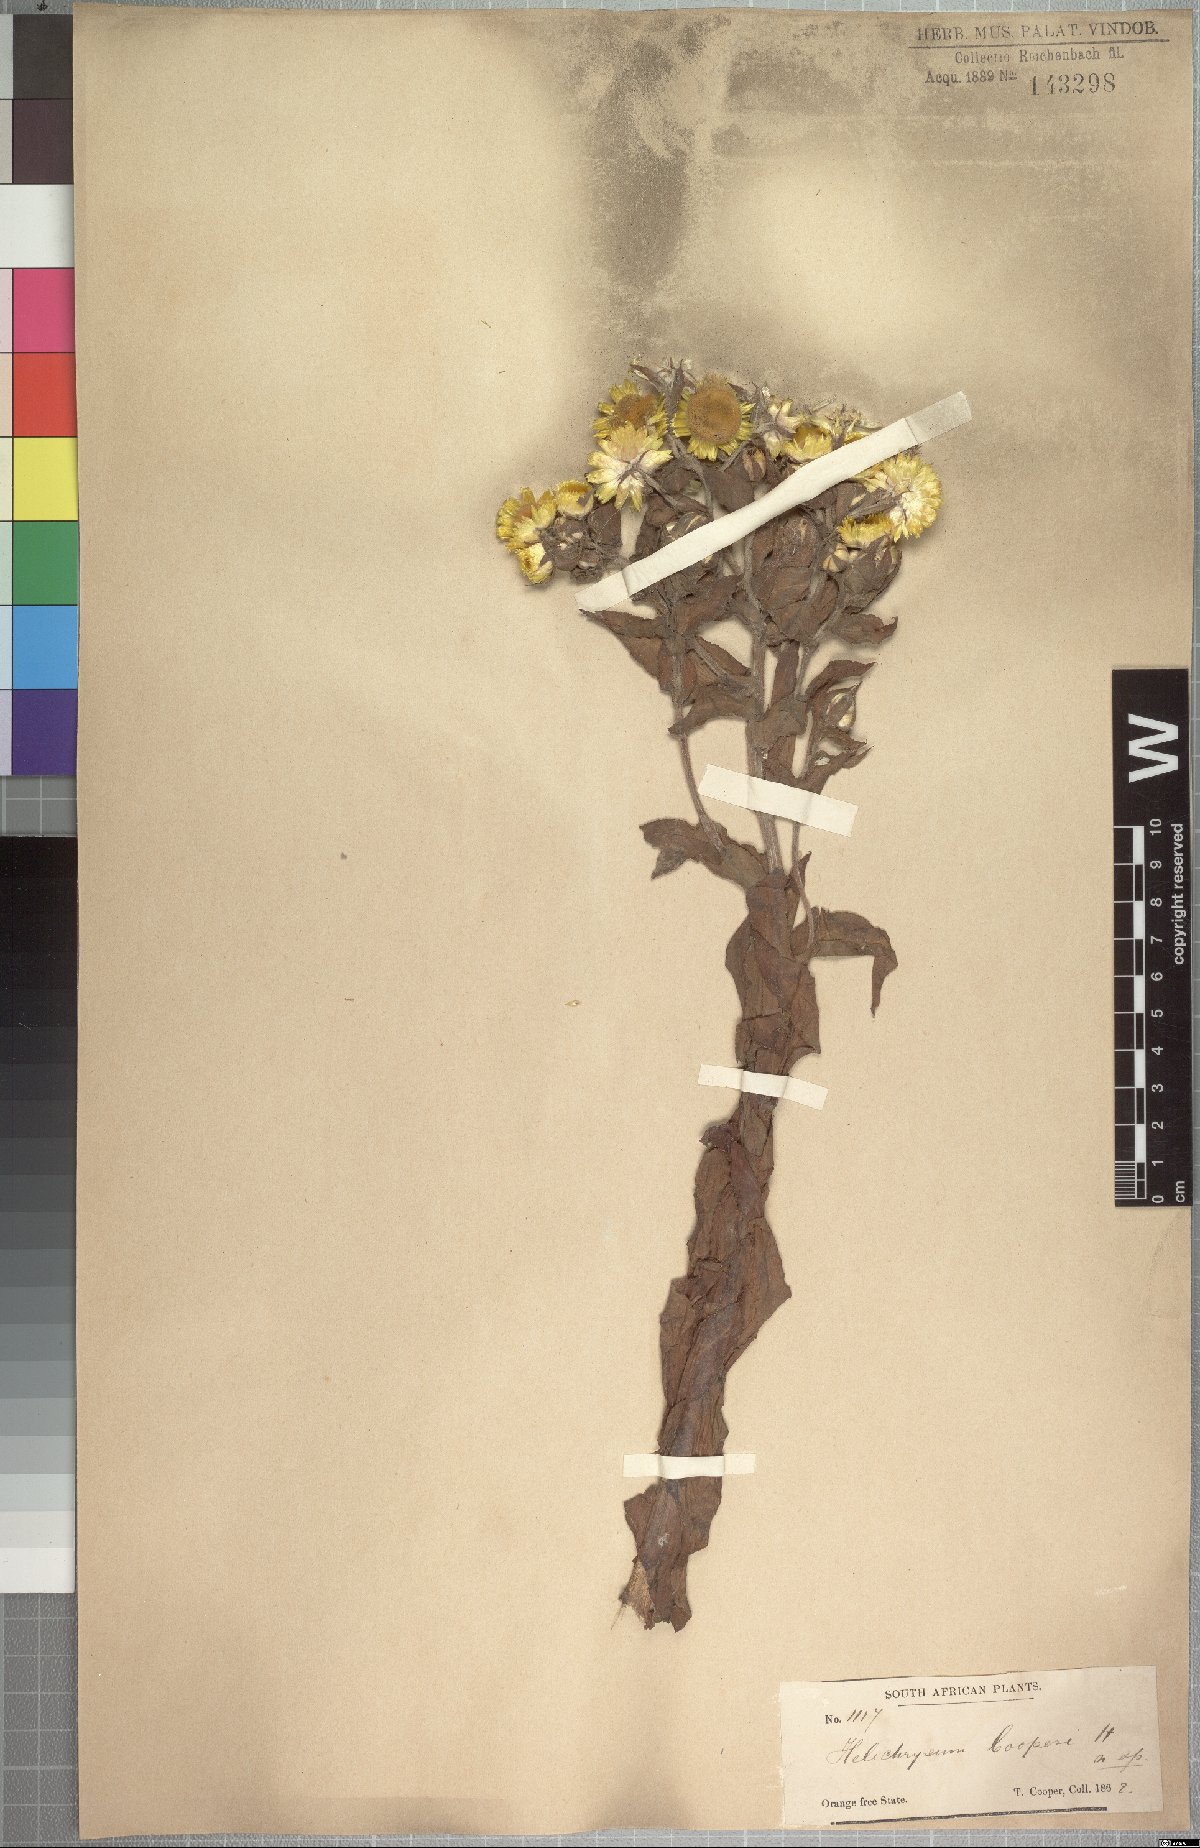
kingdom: Plantae
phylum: Tracheophyta
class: Magnoliopsida
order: Asterales
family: Asteraceae
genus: Helichrysum
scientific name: Helichrysum cooperi
